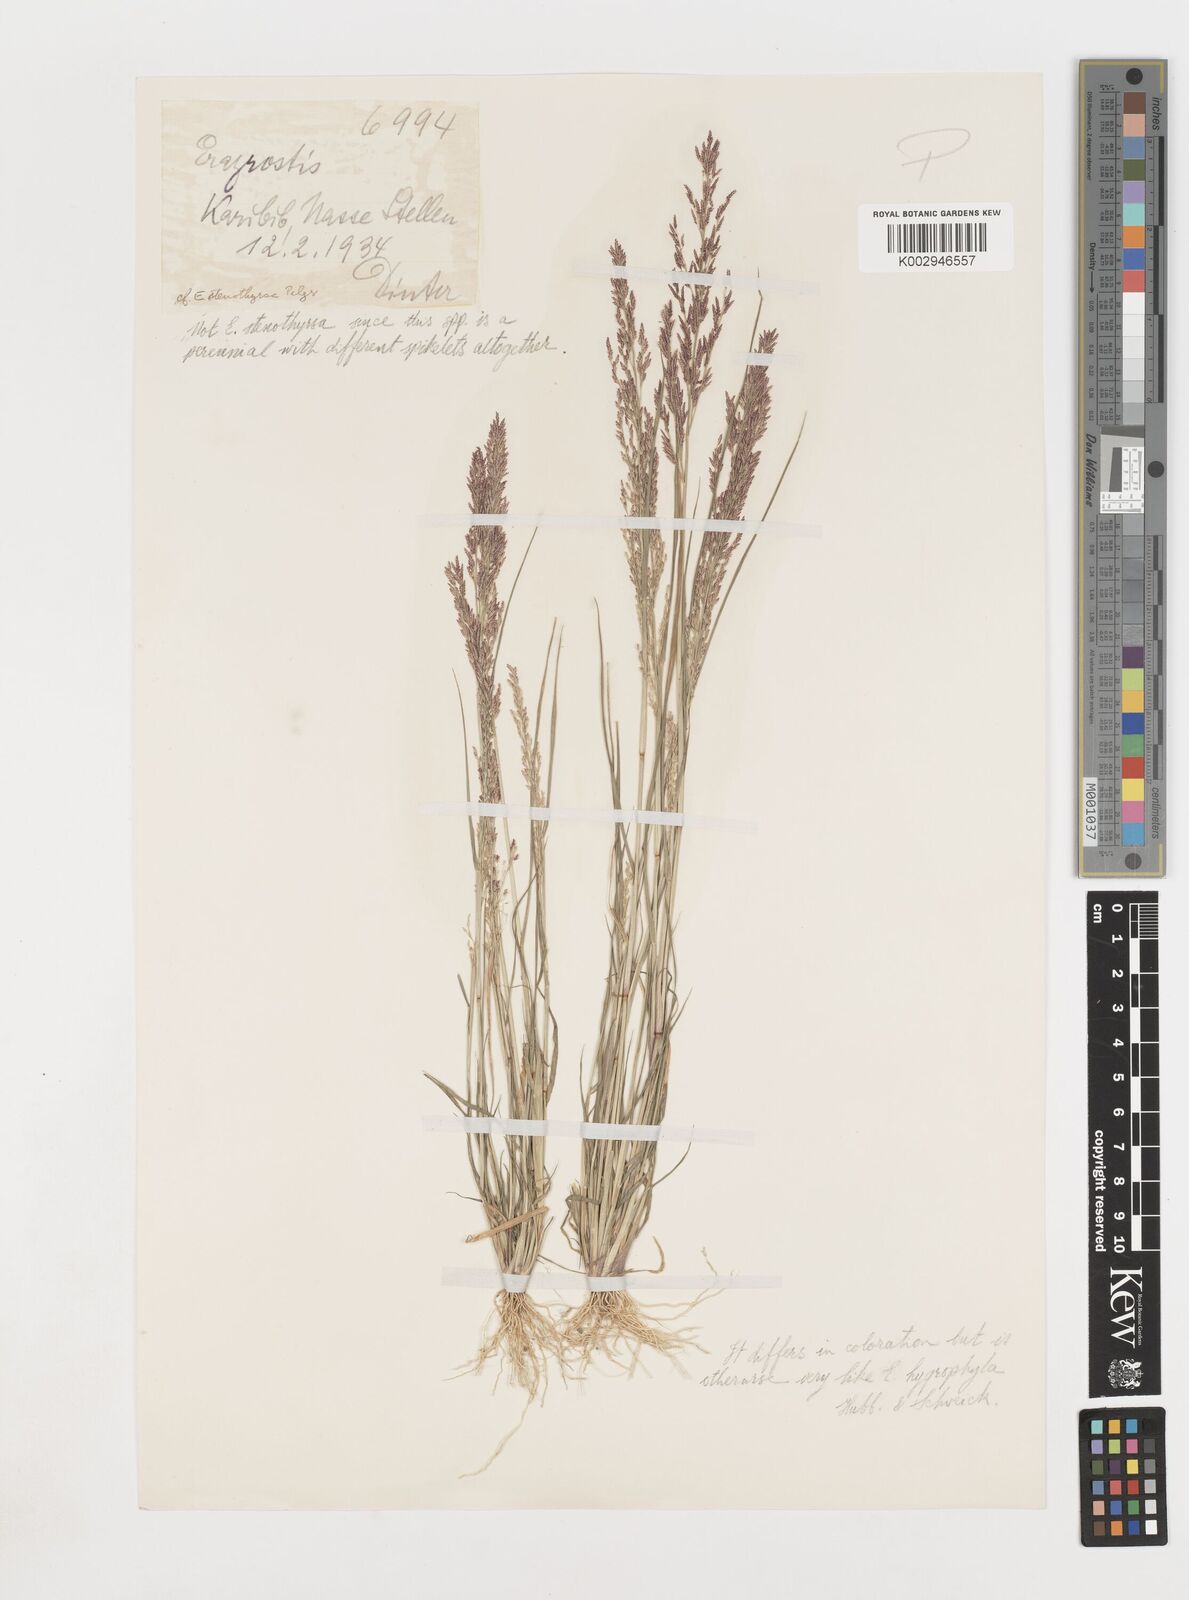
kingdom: Plantae
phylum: Tracheophyta
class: Liliopsida
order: Poales
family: Poaceae
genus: Eragrostis
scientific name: Eragrostis homomalla
